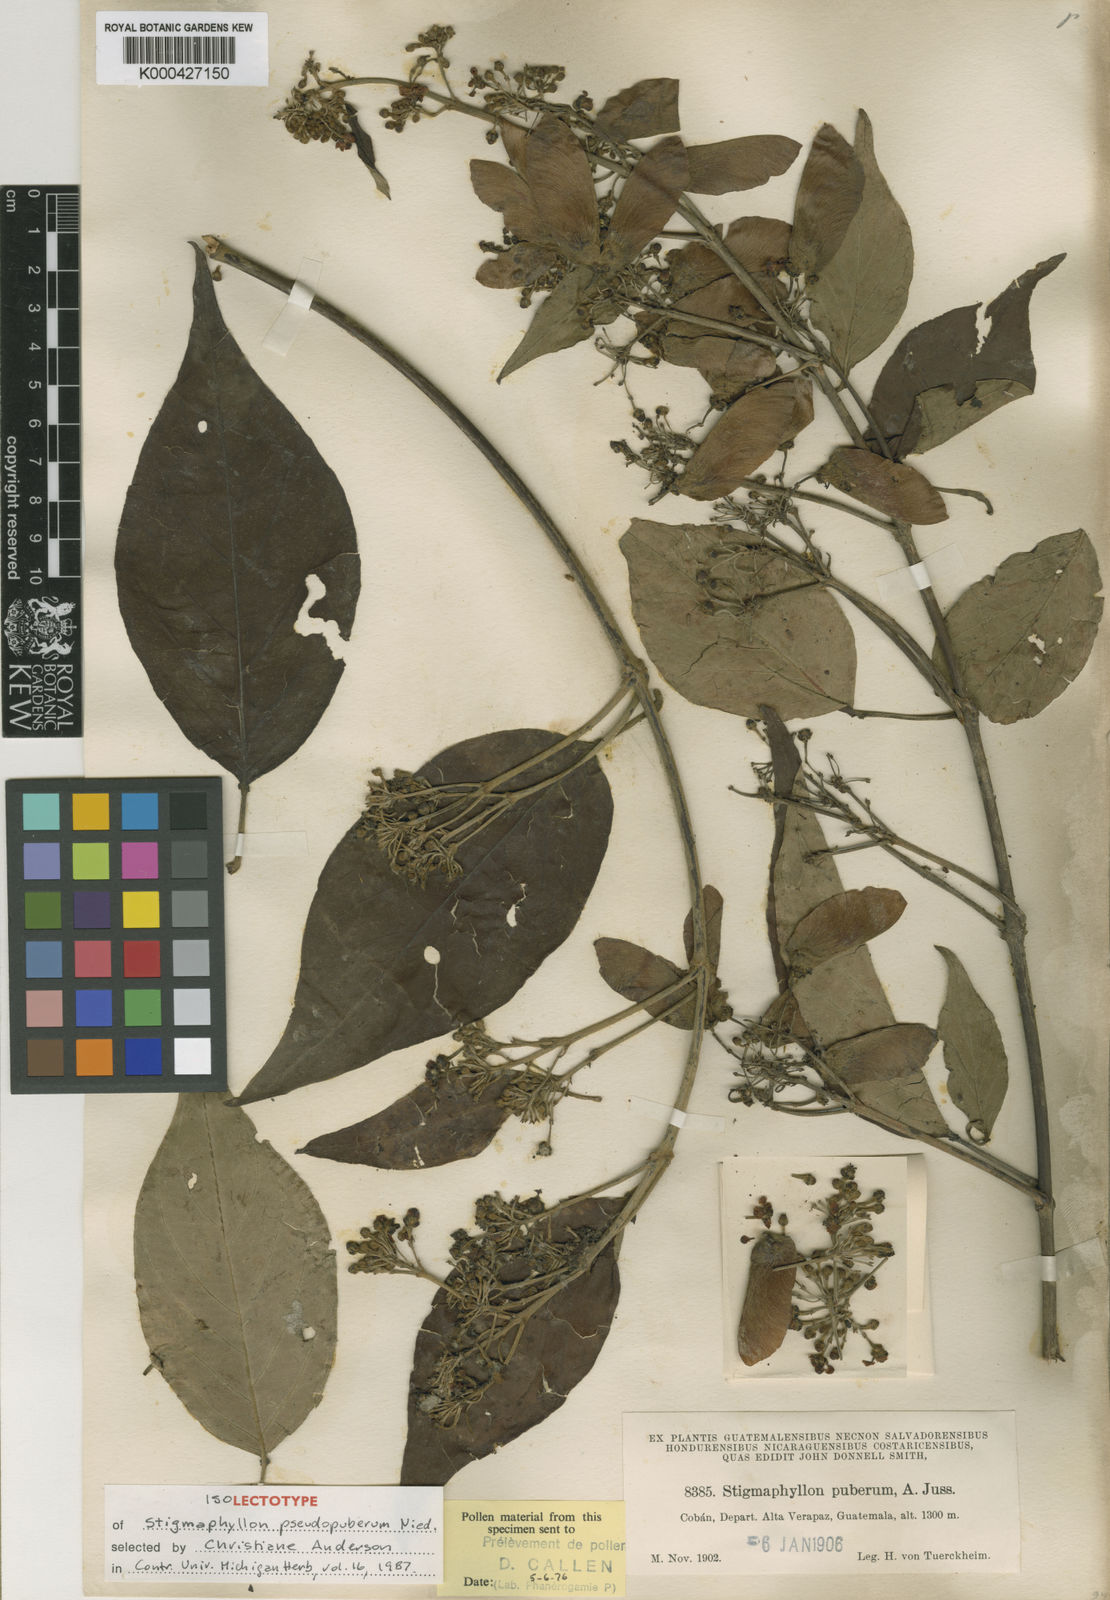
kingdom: Plantae
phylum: Tracheophyta
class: Magnoliopsida
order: Malpighiales
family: Malpighiaceae
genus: Stigmaphyllon
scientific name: Stigmaphyllon puberum
